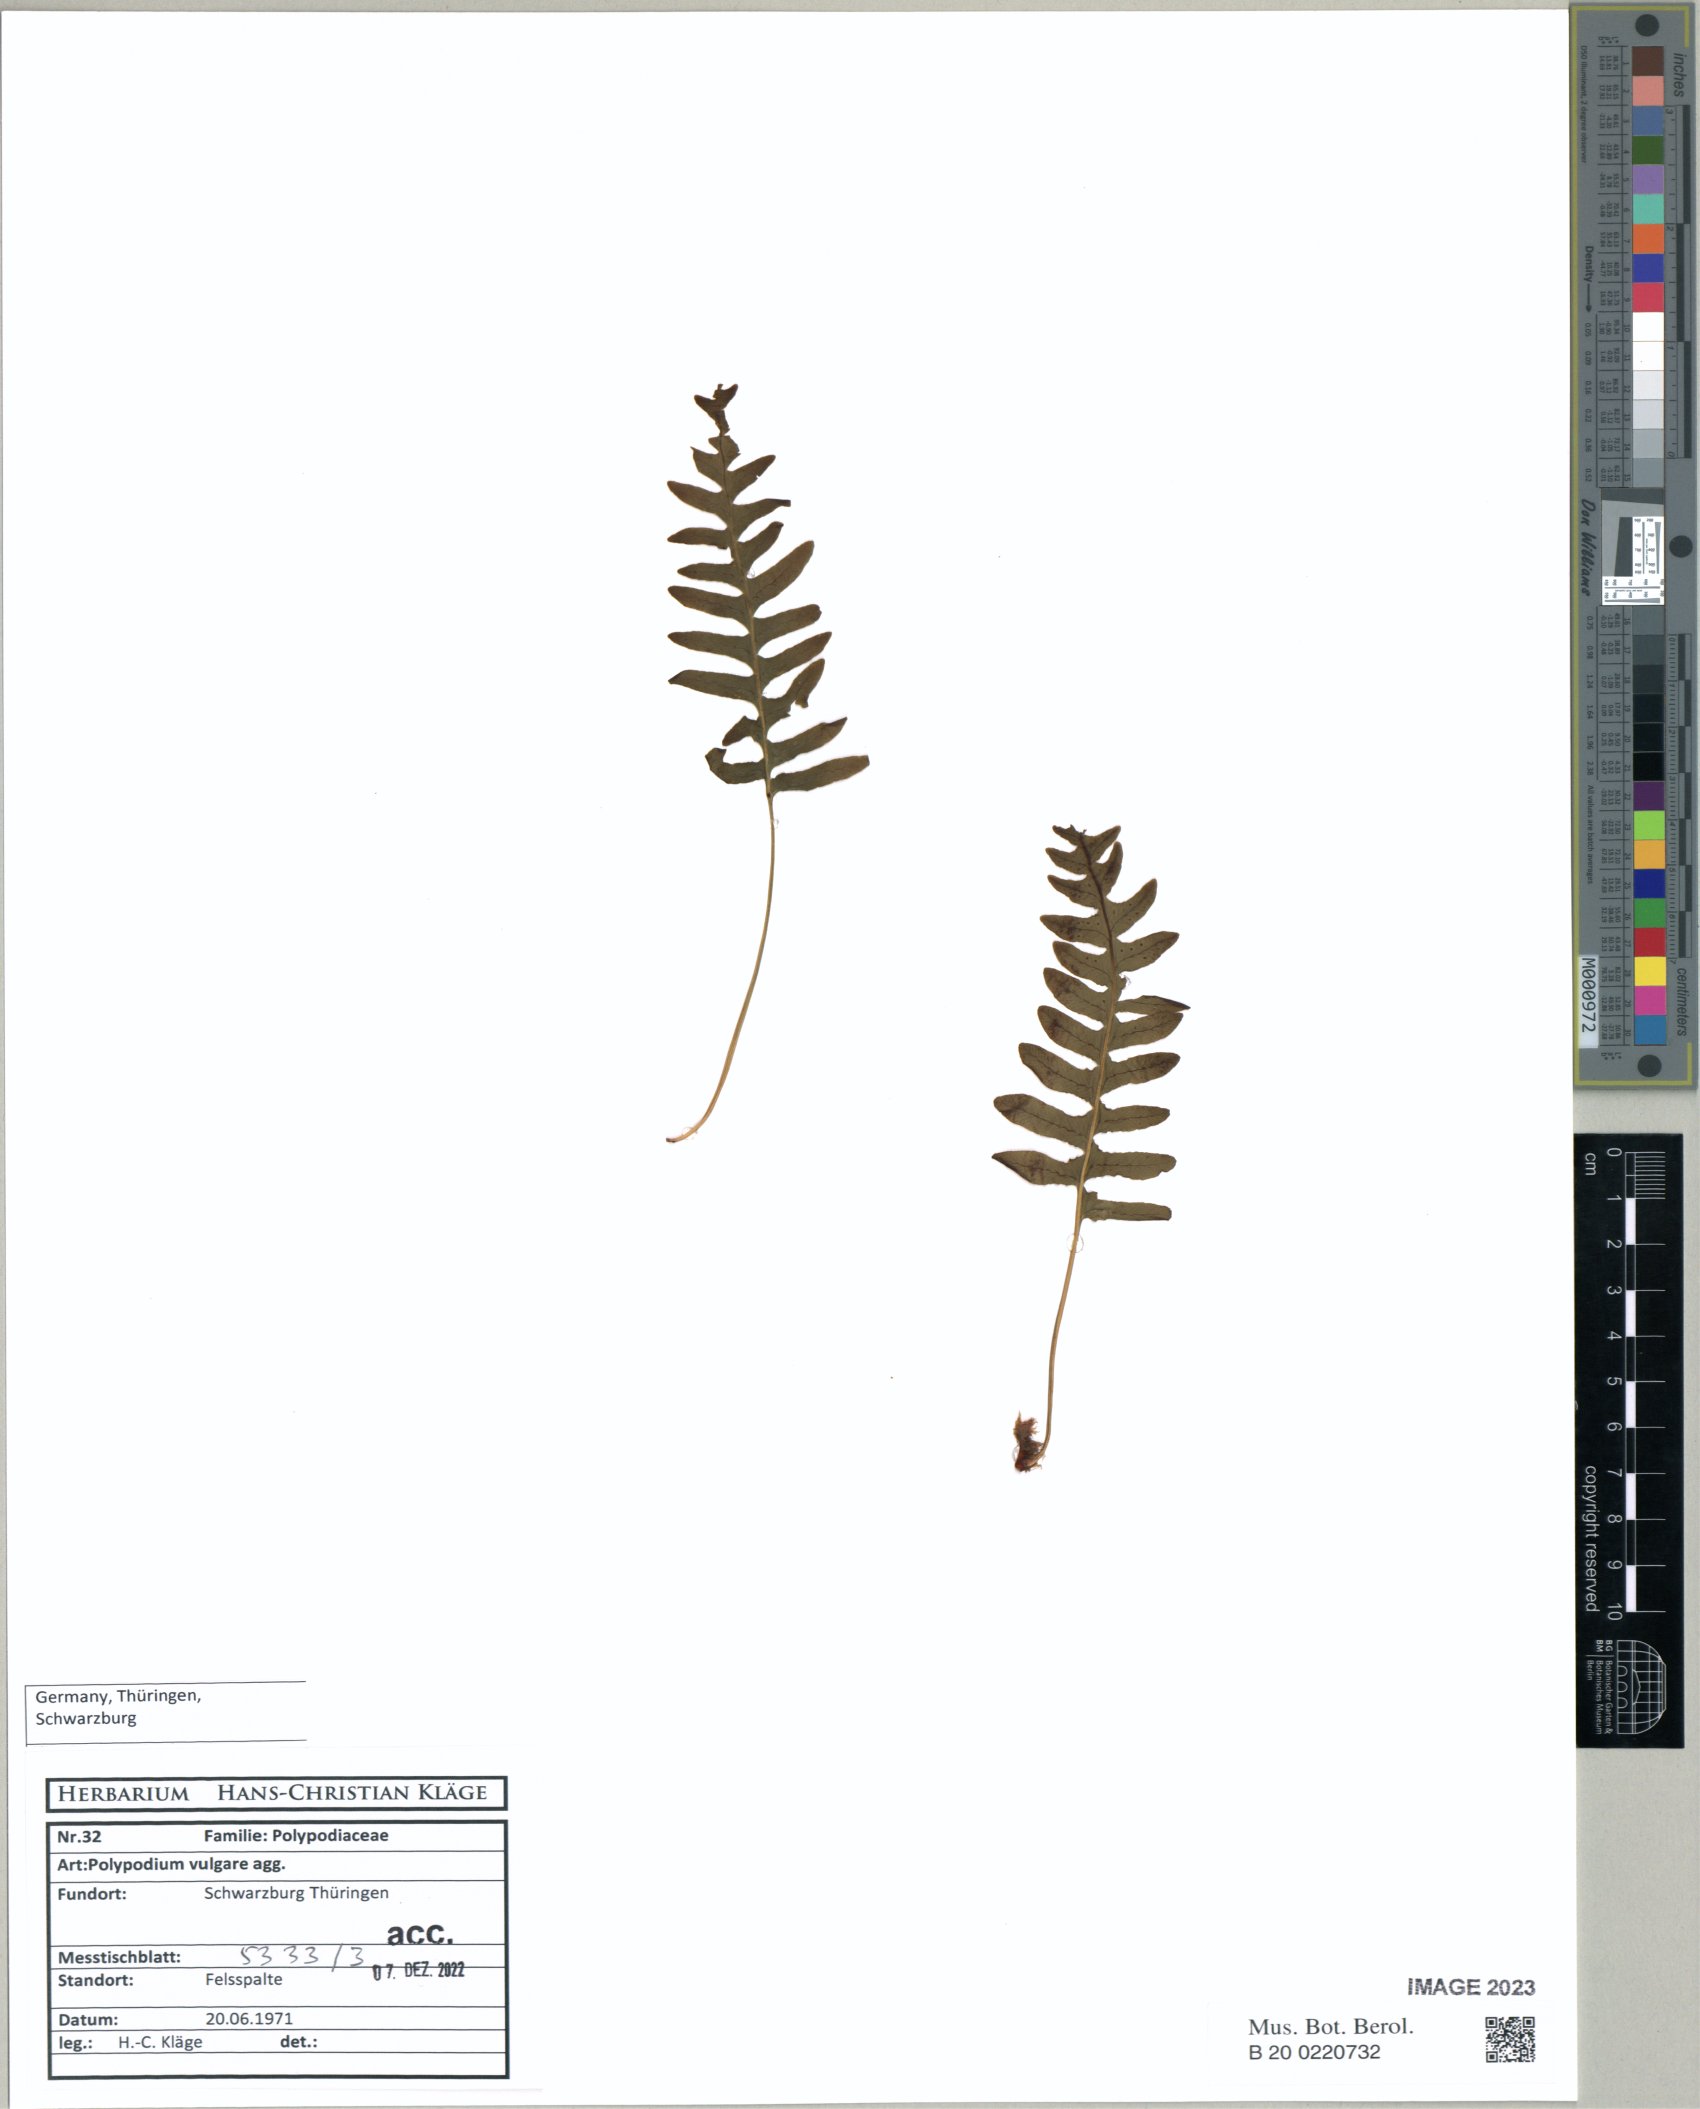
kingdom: Plantae
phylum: Tracheophyta
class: Polypodiopsida
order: Polypodiales
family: Polypodiaceae
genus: Polypodium
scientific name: Polypodium vulgare
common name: Common polypody
